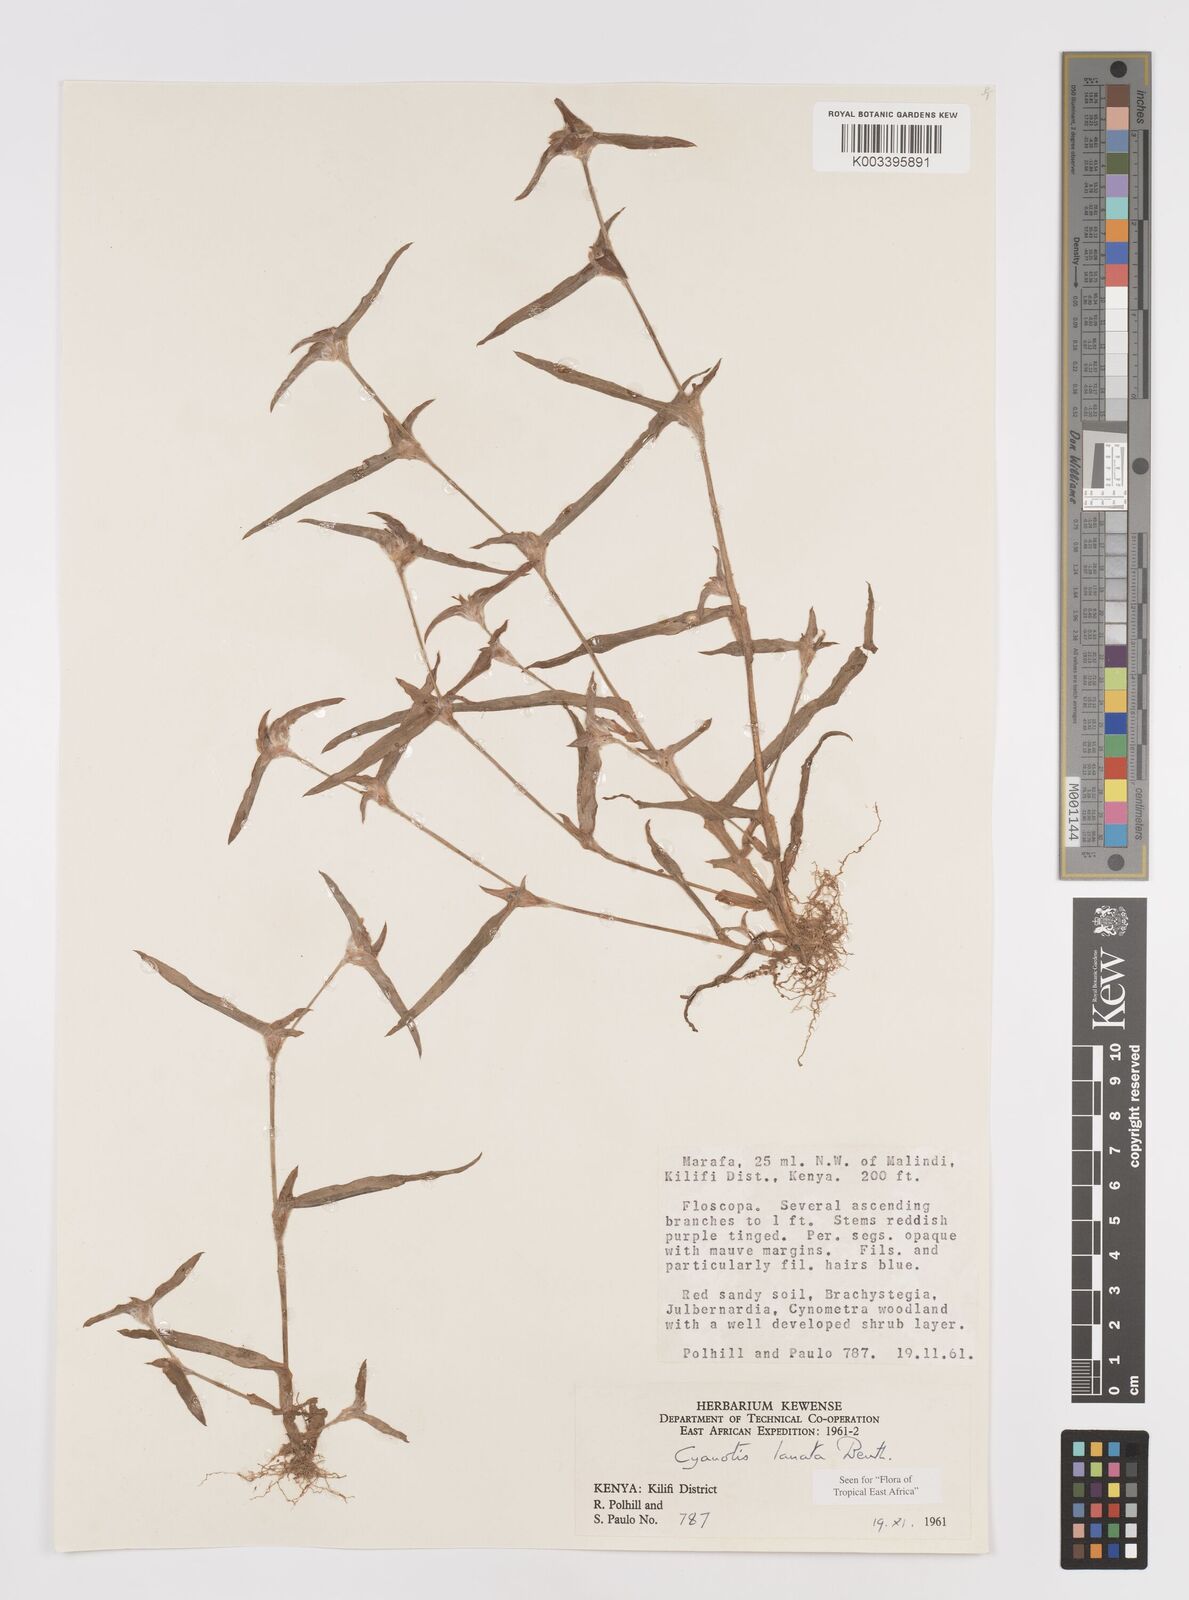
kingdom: Plantae
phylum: Tracheophyta
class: Liliopsida
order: Commelinales
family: Commelinaceae
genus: Cyanotis
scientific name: Cyanotis lanata
